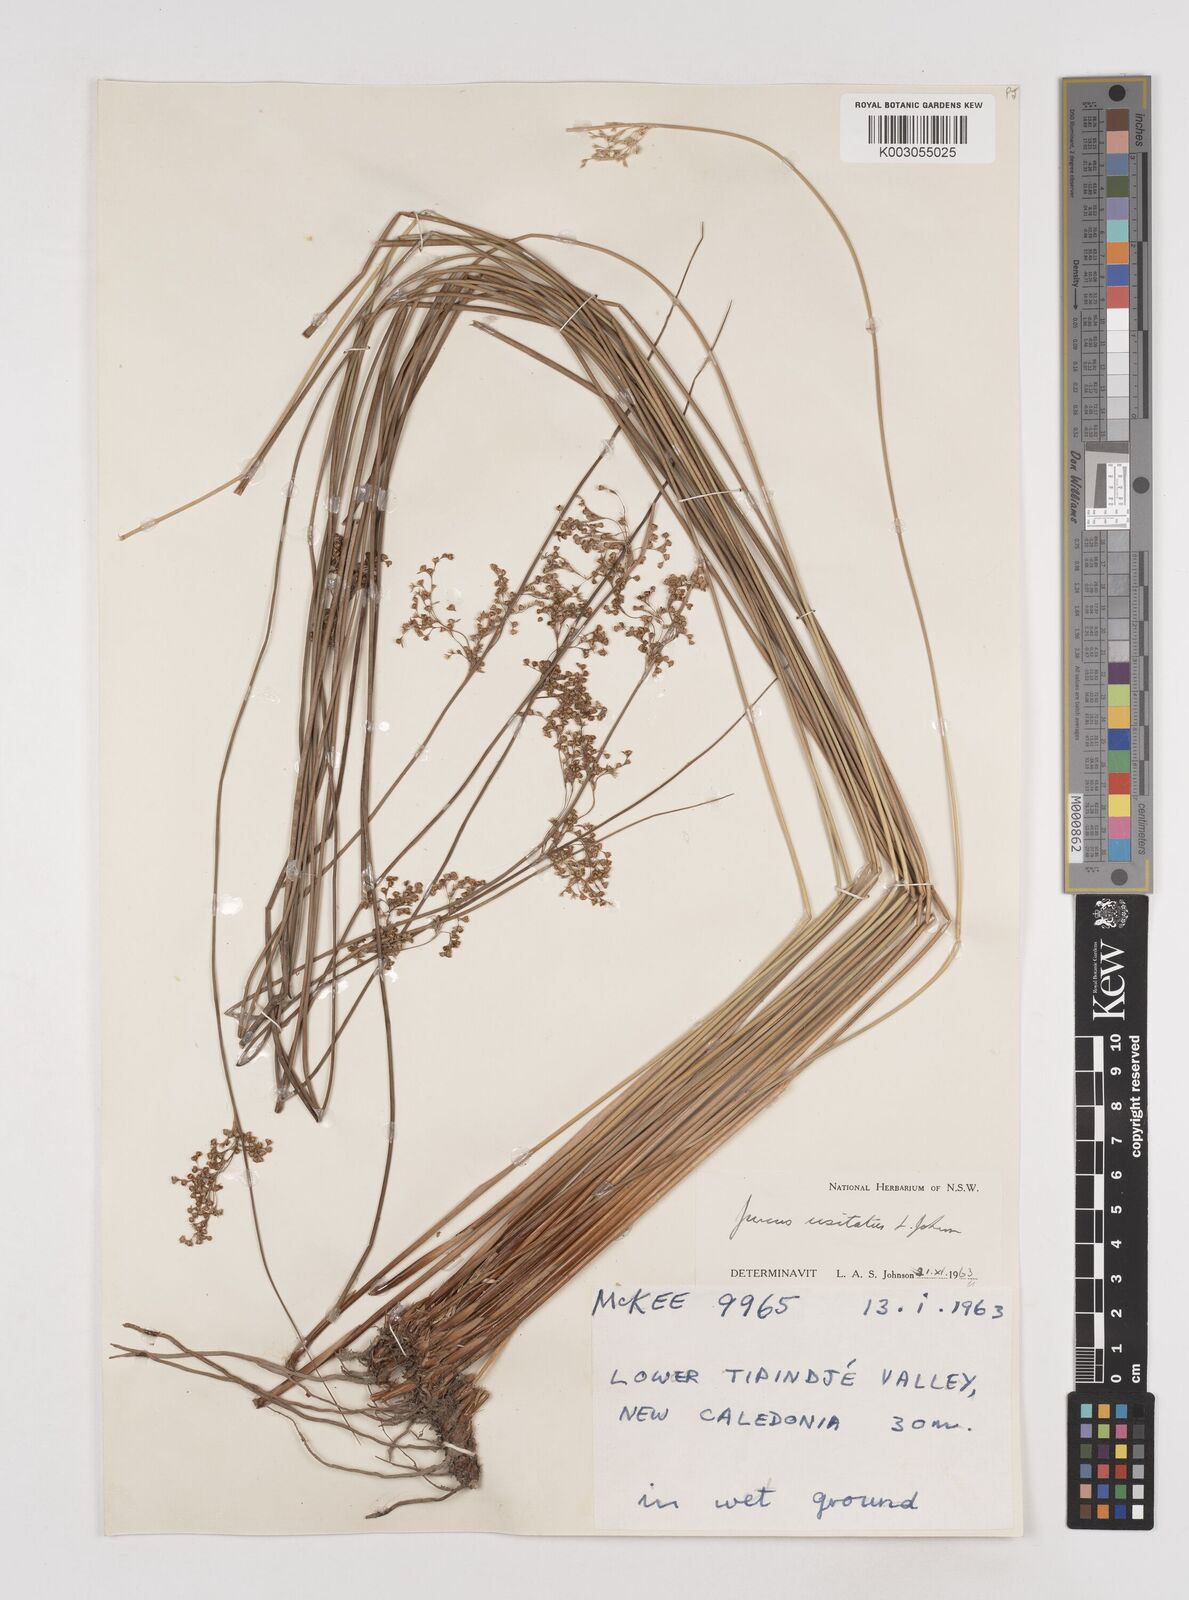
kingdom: Plantae
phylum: Tracheophyta
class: Liliopsida
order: Poales
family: Juncaceae
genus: Juncus
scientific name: Juncus usitatus
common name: Rush
